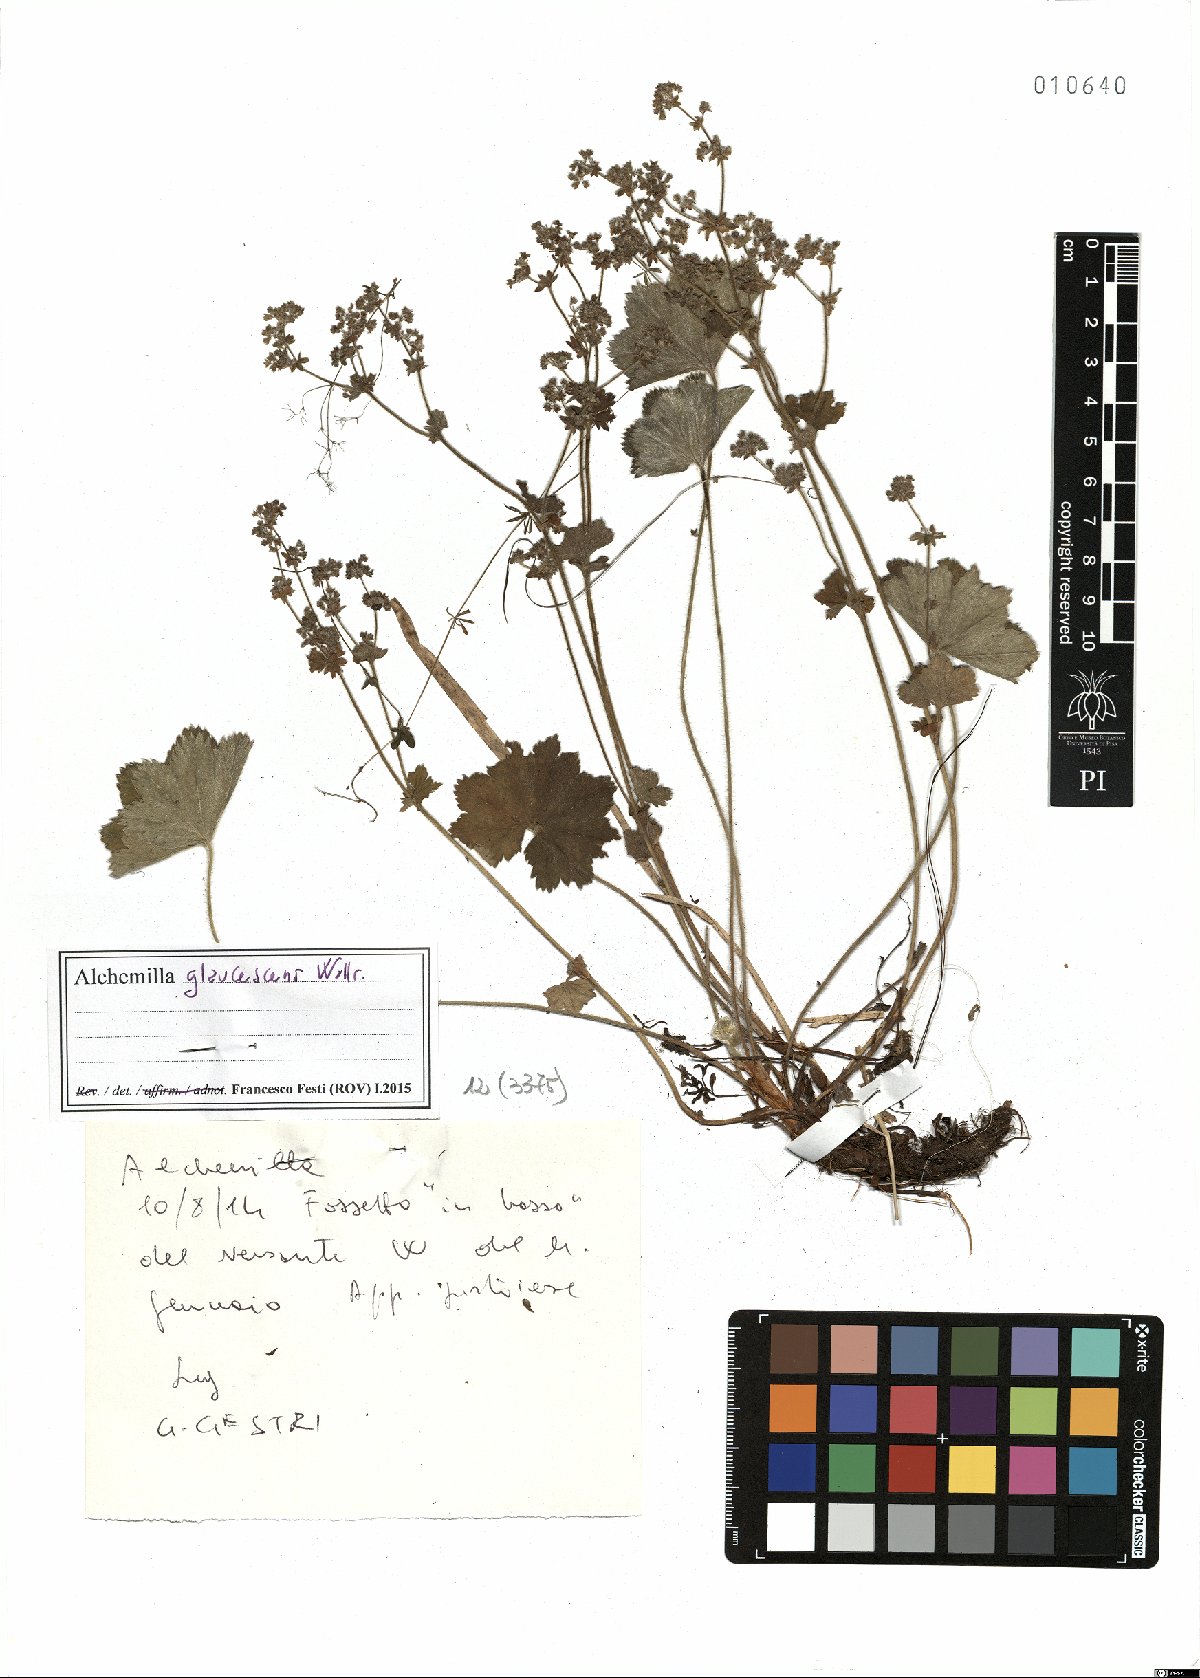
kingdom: Plantae
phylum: Tracheophyta
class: Magnoliopsida
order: Rosales
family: Rosaceae
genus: Alchemilla
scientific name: Alchemilla glaucescens
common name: Silky lady's mantle
